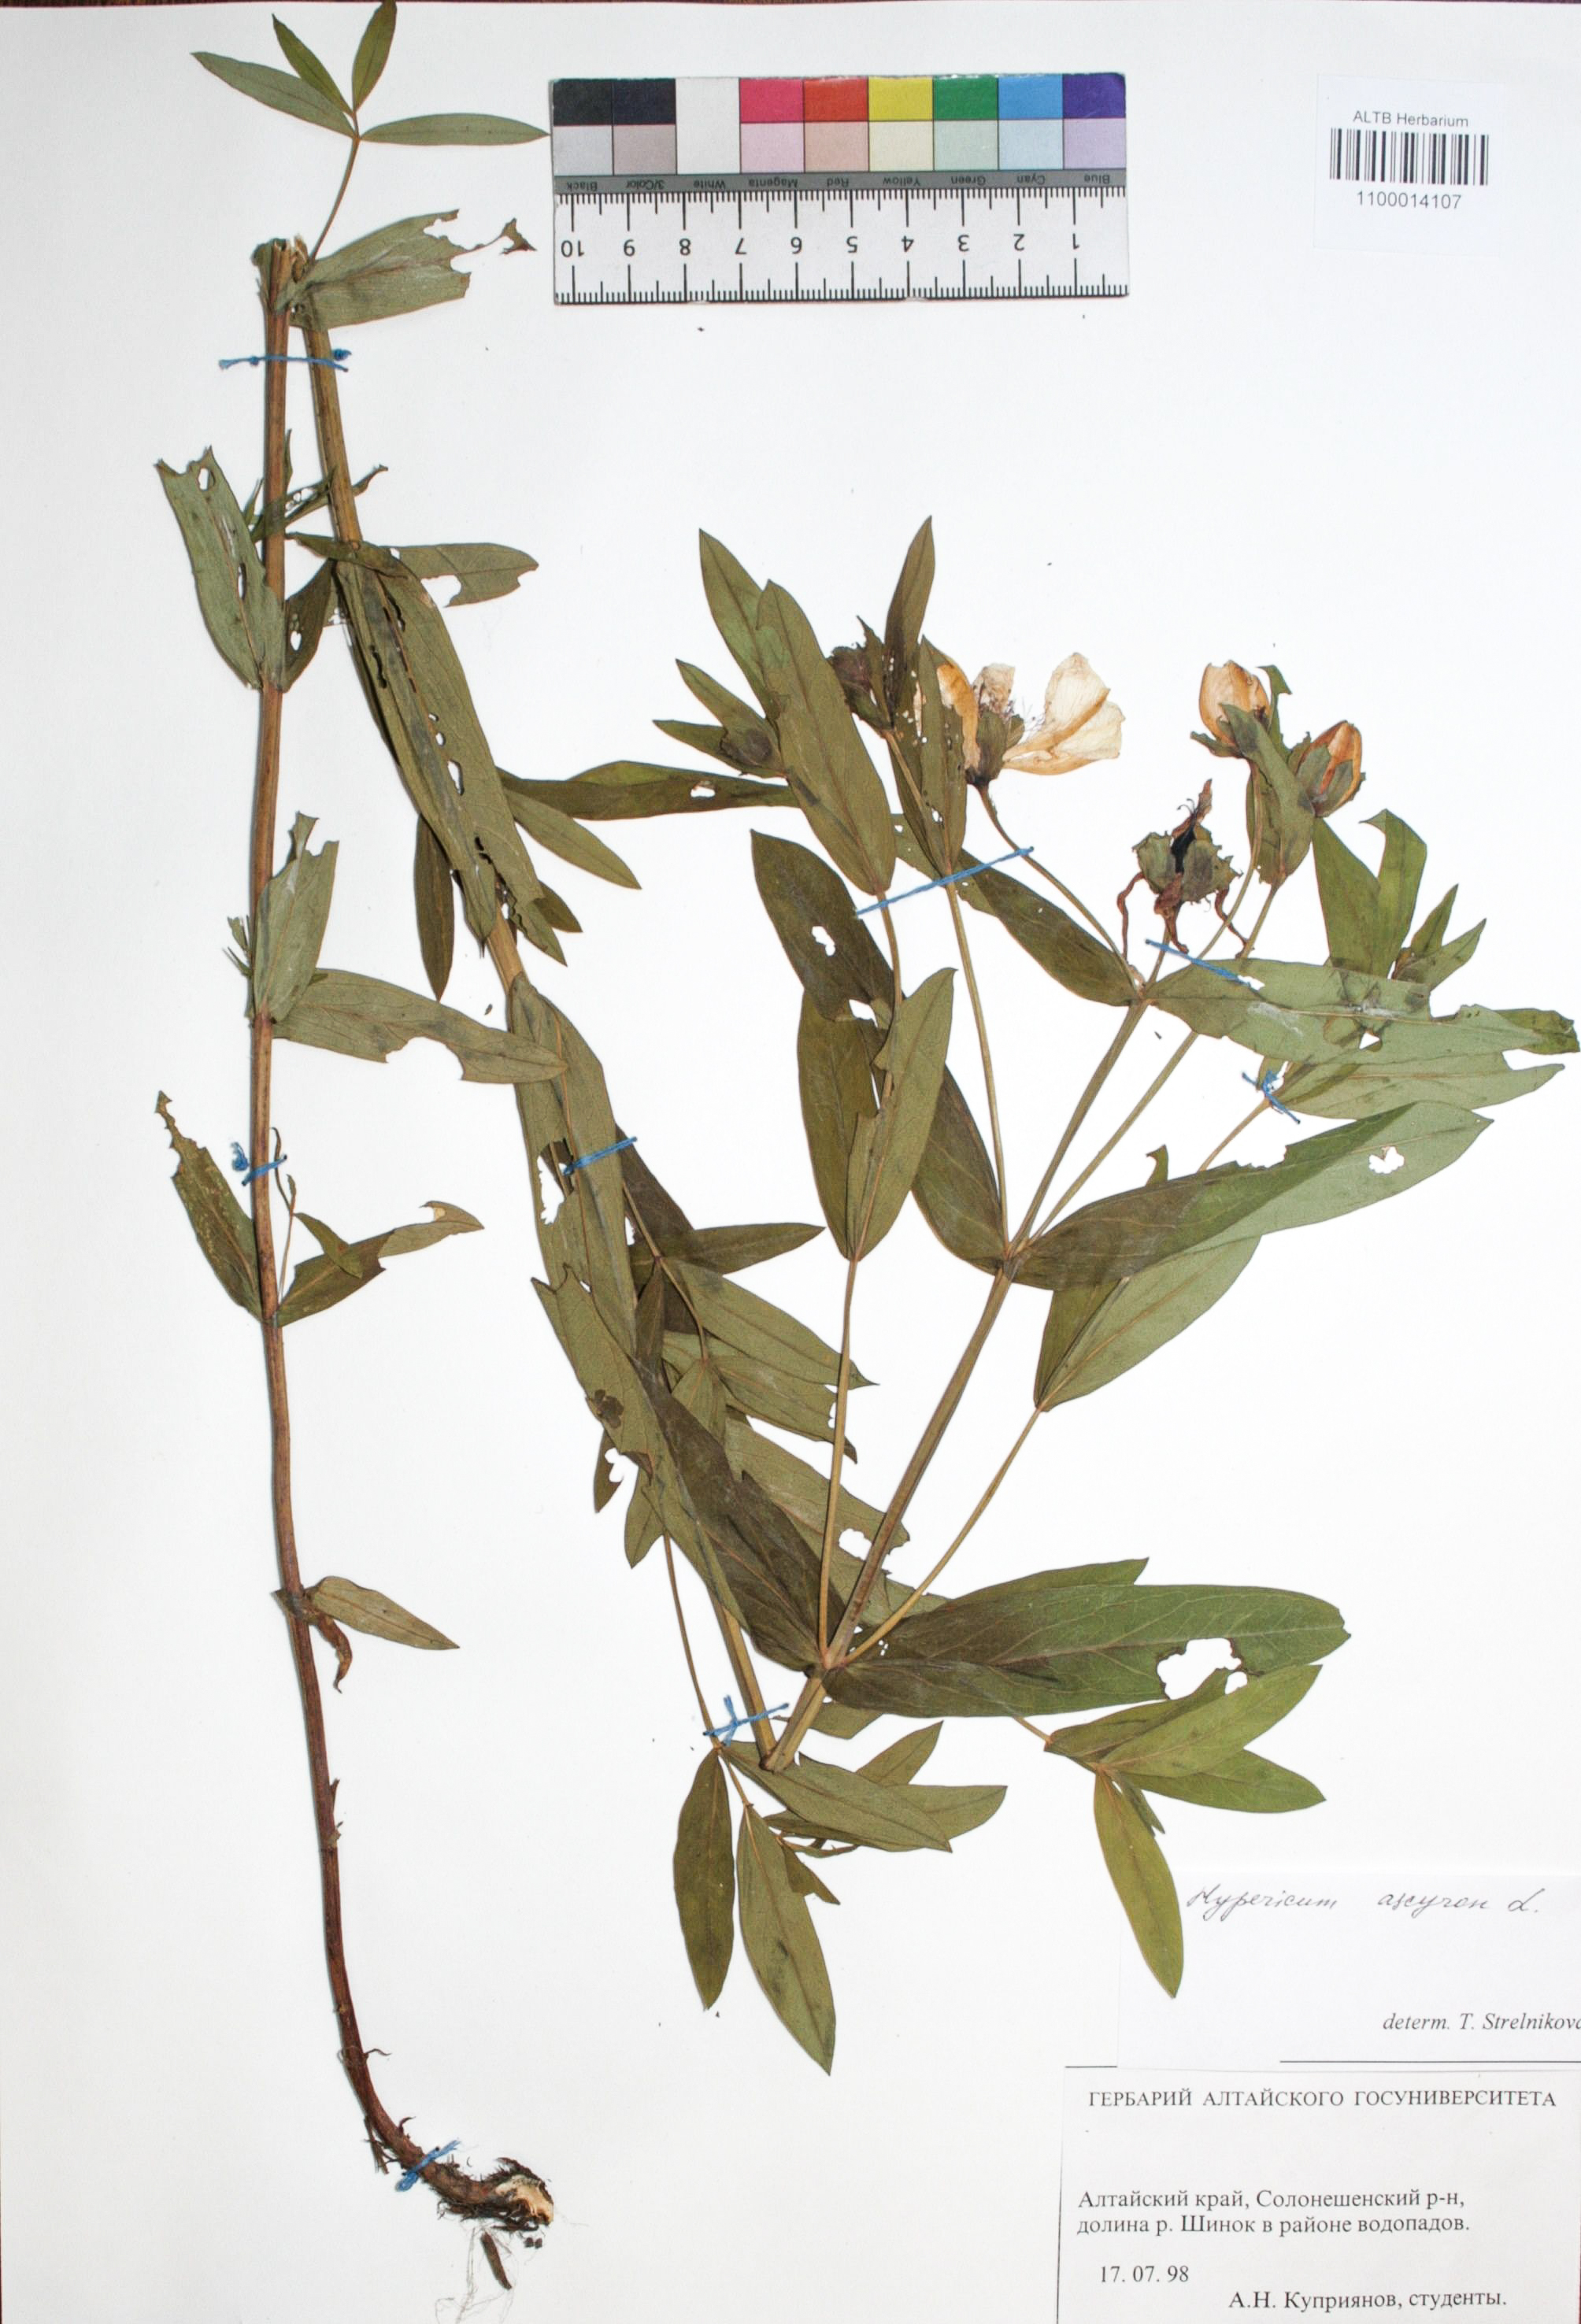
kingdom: Plantae
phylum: Tracheophyta
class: Magnoliopsida
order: Malpighiales
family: Hypericaceae
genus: Hypericum
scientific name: Hypericum ascyron
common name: Giant st. john's-wort
